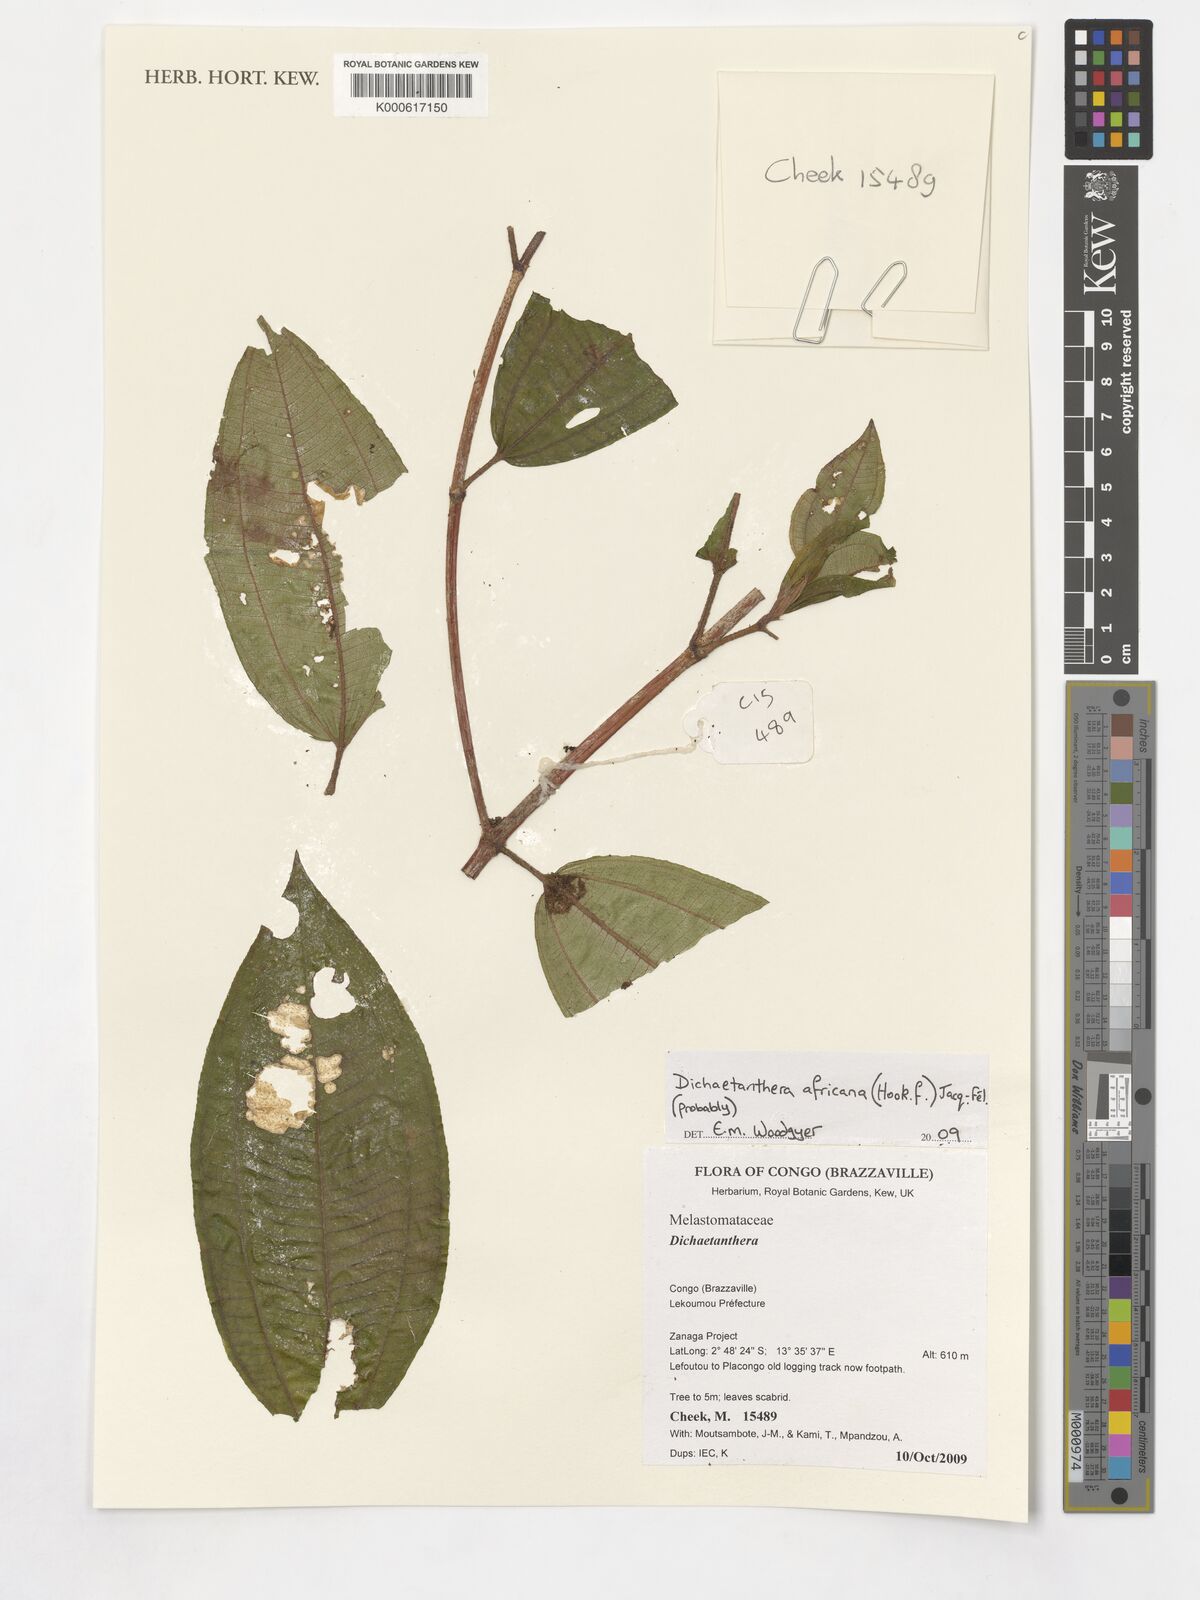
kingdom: Plantae
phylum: Tracheophyta
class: Magnoliopsida
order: Myrtales
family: Melastomataceae
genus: Dichaetanthera
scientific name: Dichaetanthera africana
